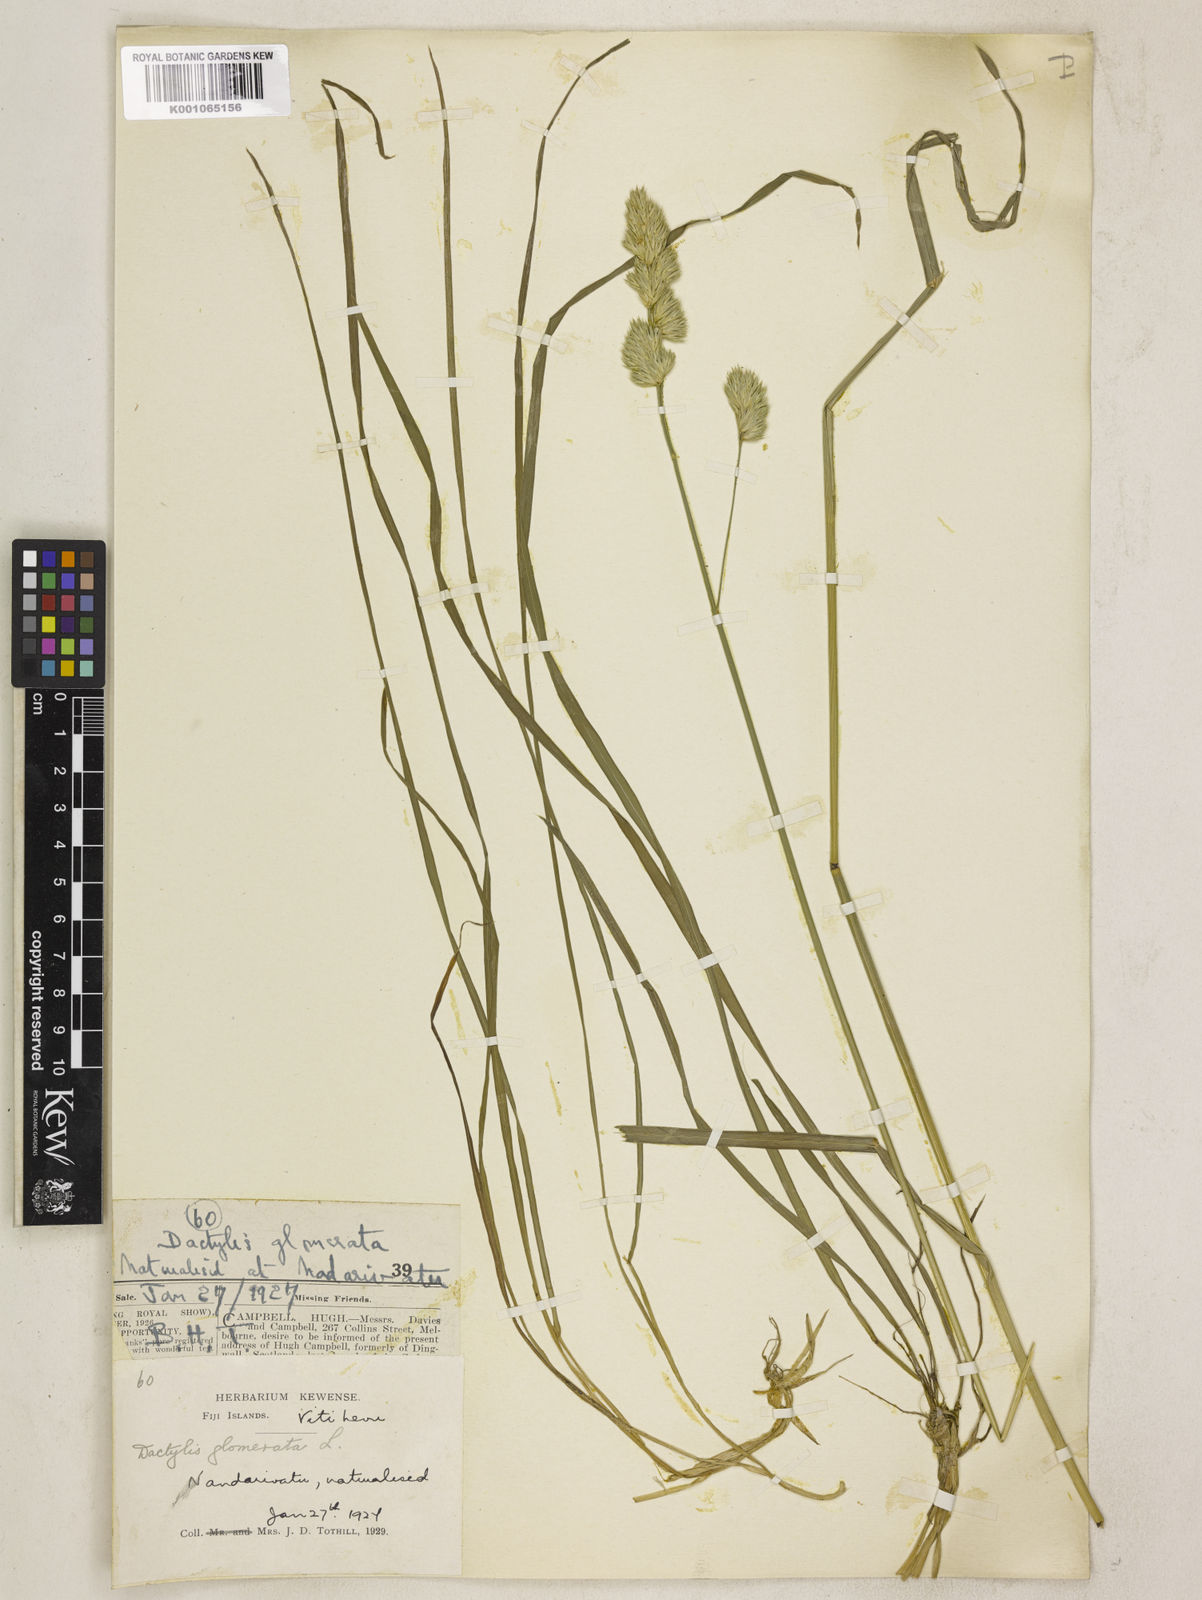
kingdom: Plantae
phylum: Tracheophyta
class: Liliopsida
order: Poales
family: Poaceae
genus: Dactylis
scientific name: Dactylis glomerata
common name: Orchardgrass
